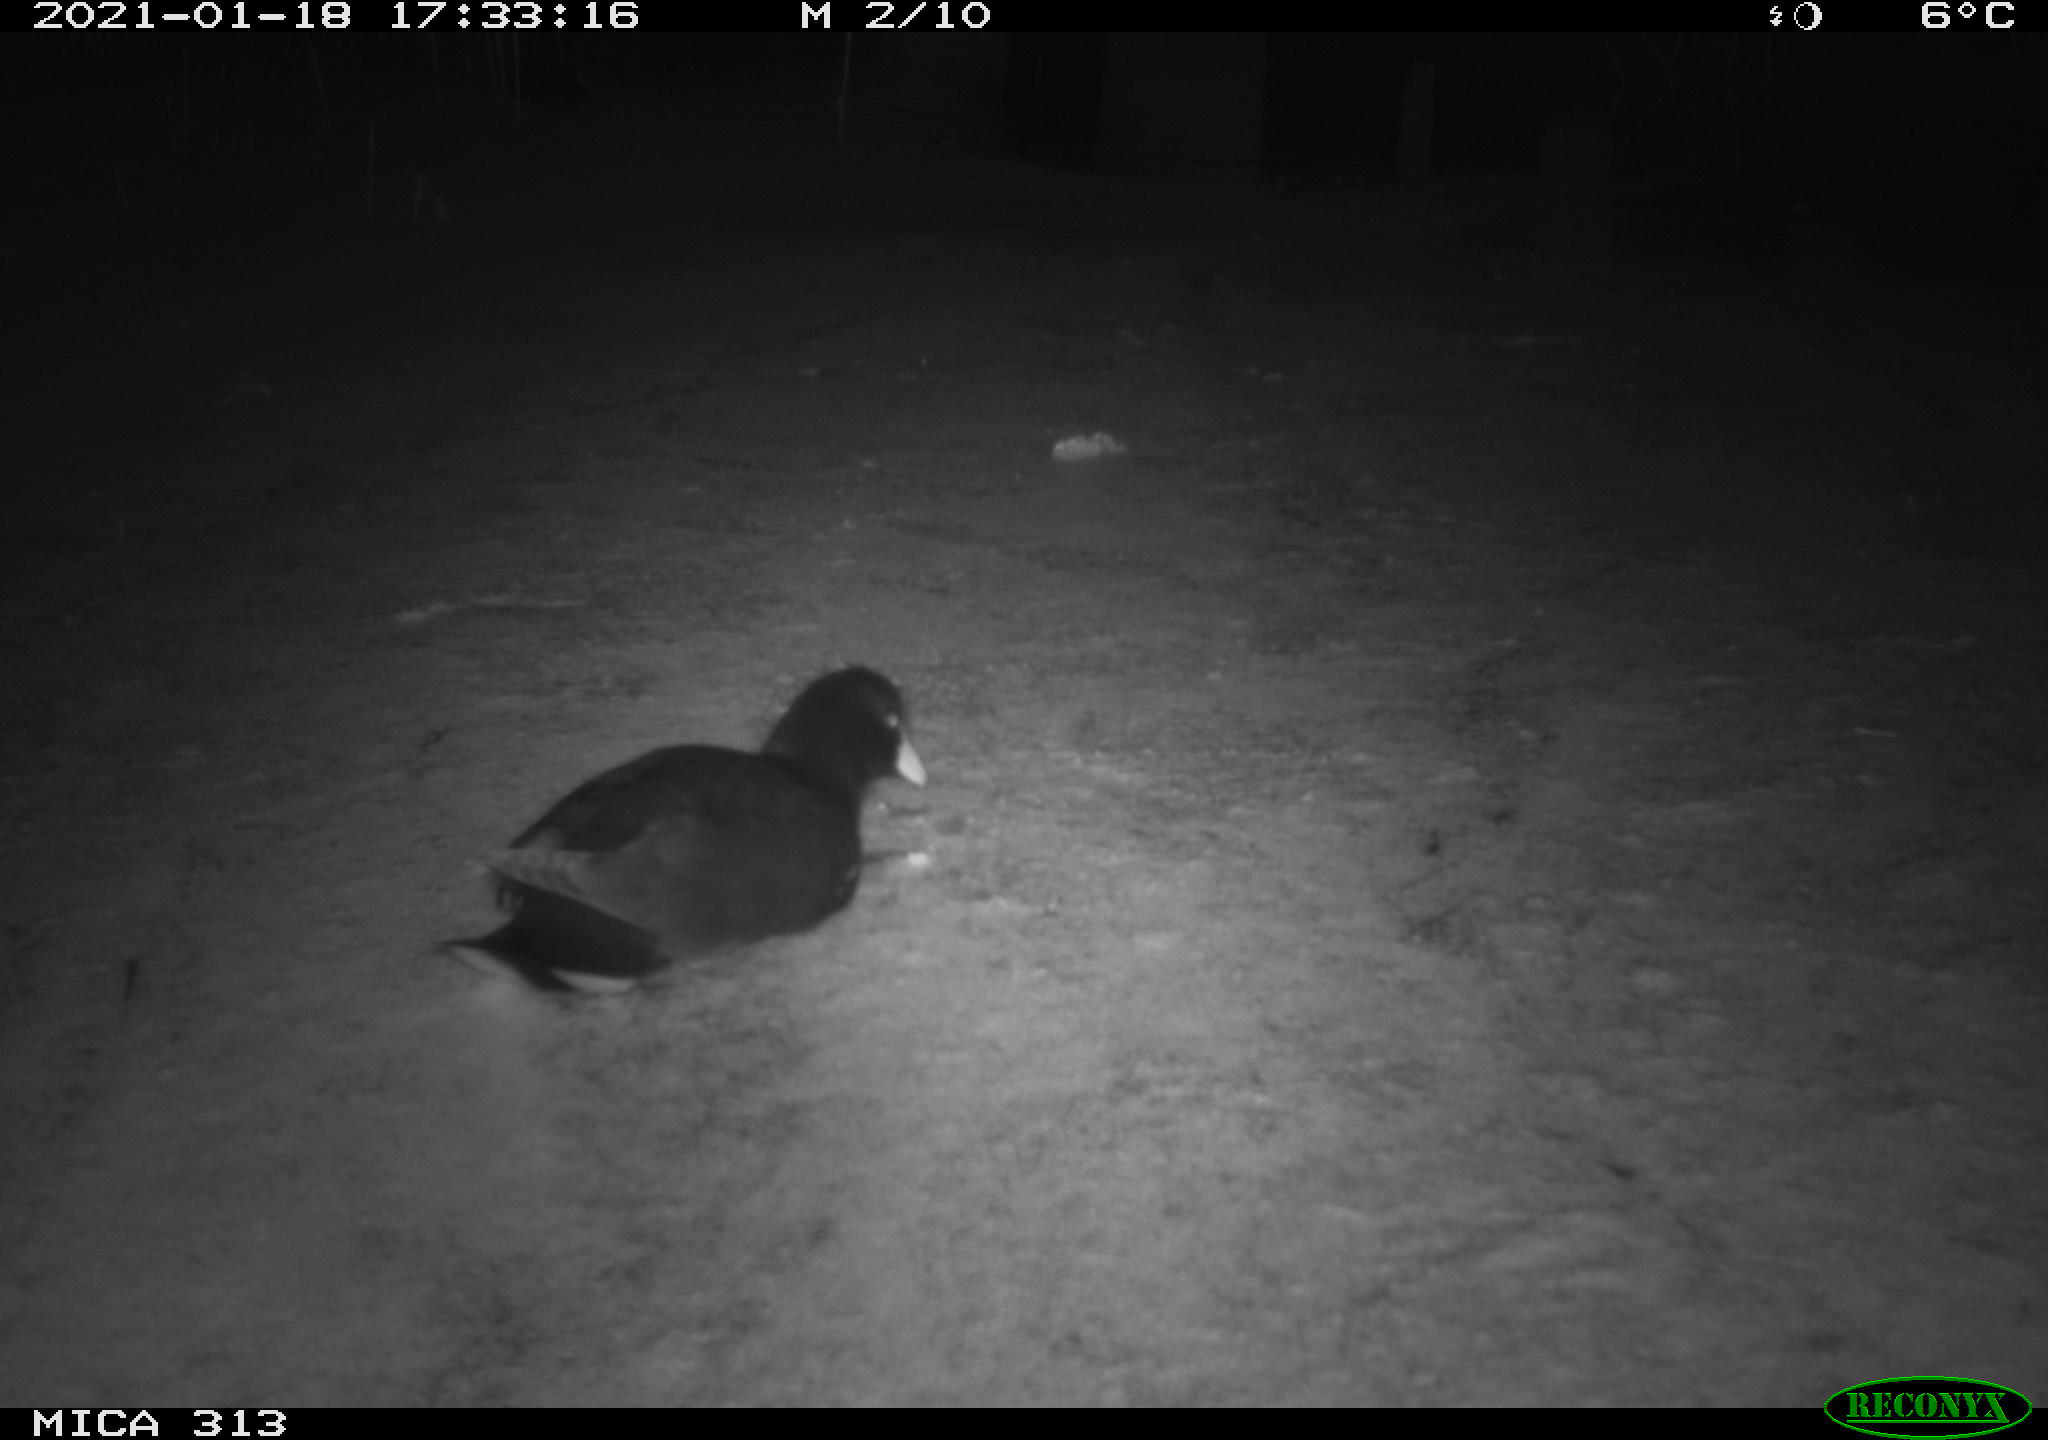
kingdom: Animalia
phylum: Chordata
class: Aves
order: Gruiformes
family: Rallidae
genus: Gallinula
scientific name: Gallinula chloropus
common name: Common moorhen
